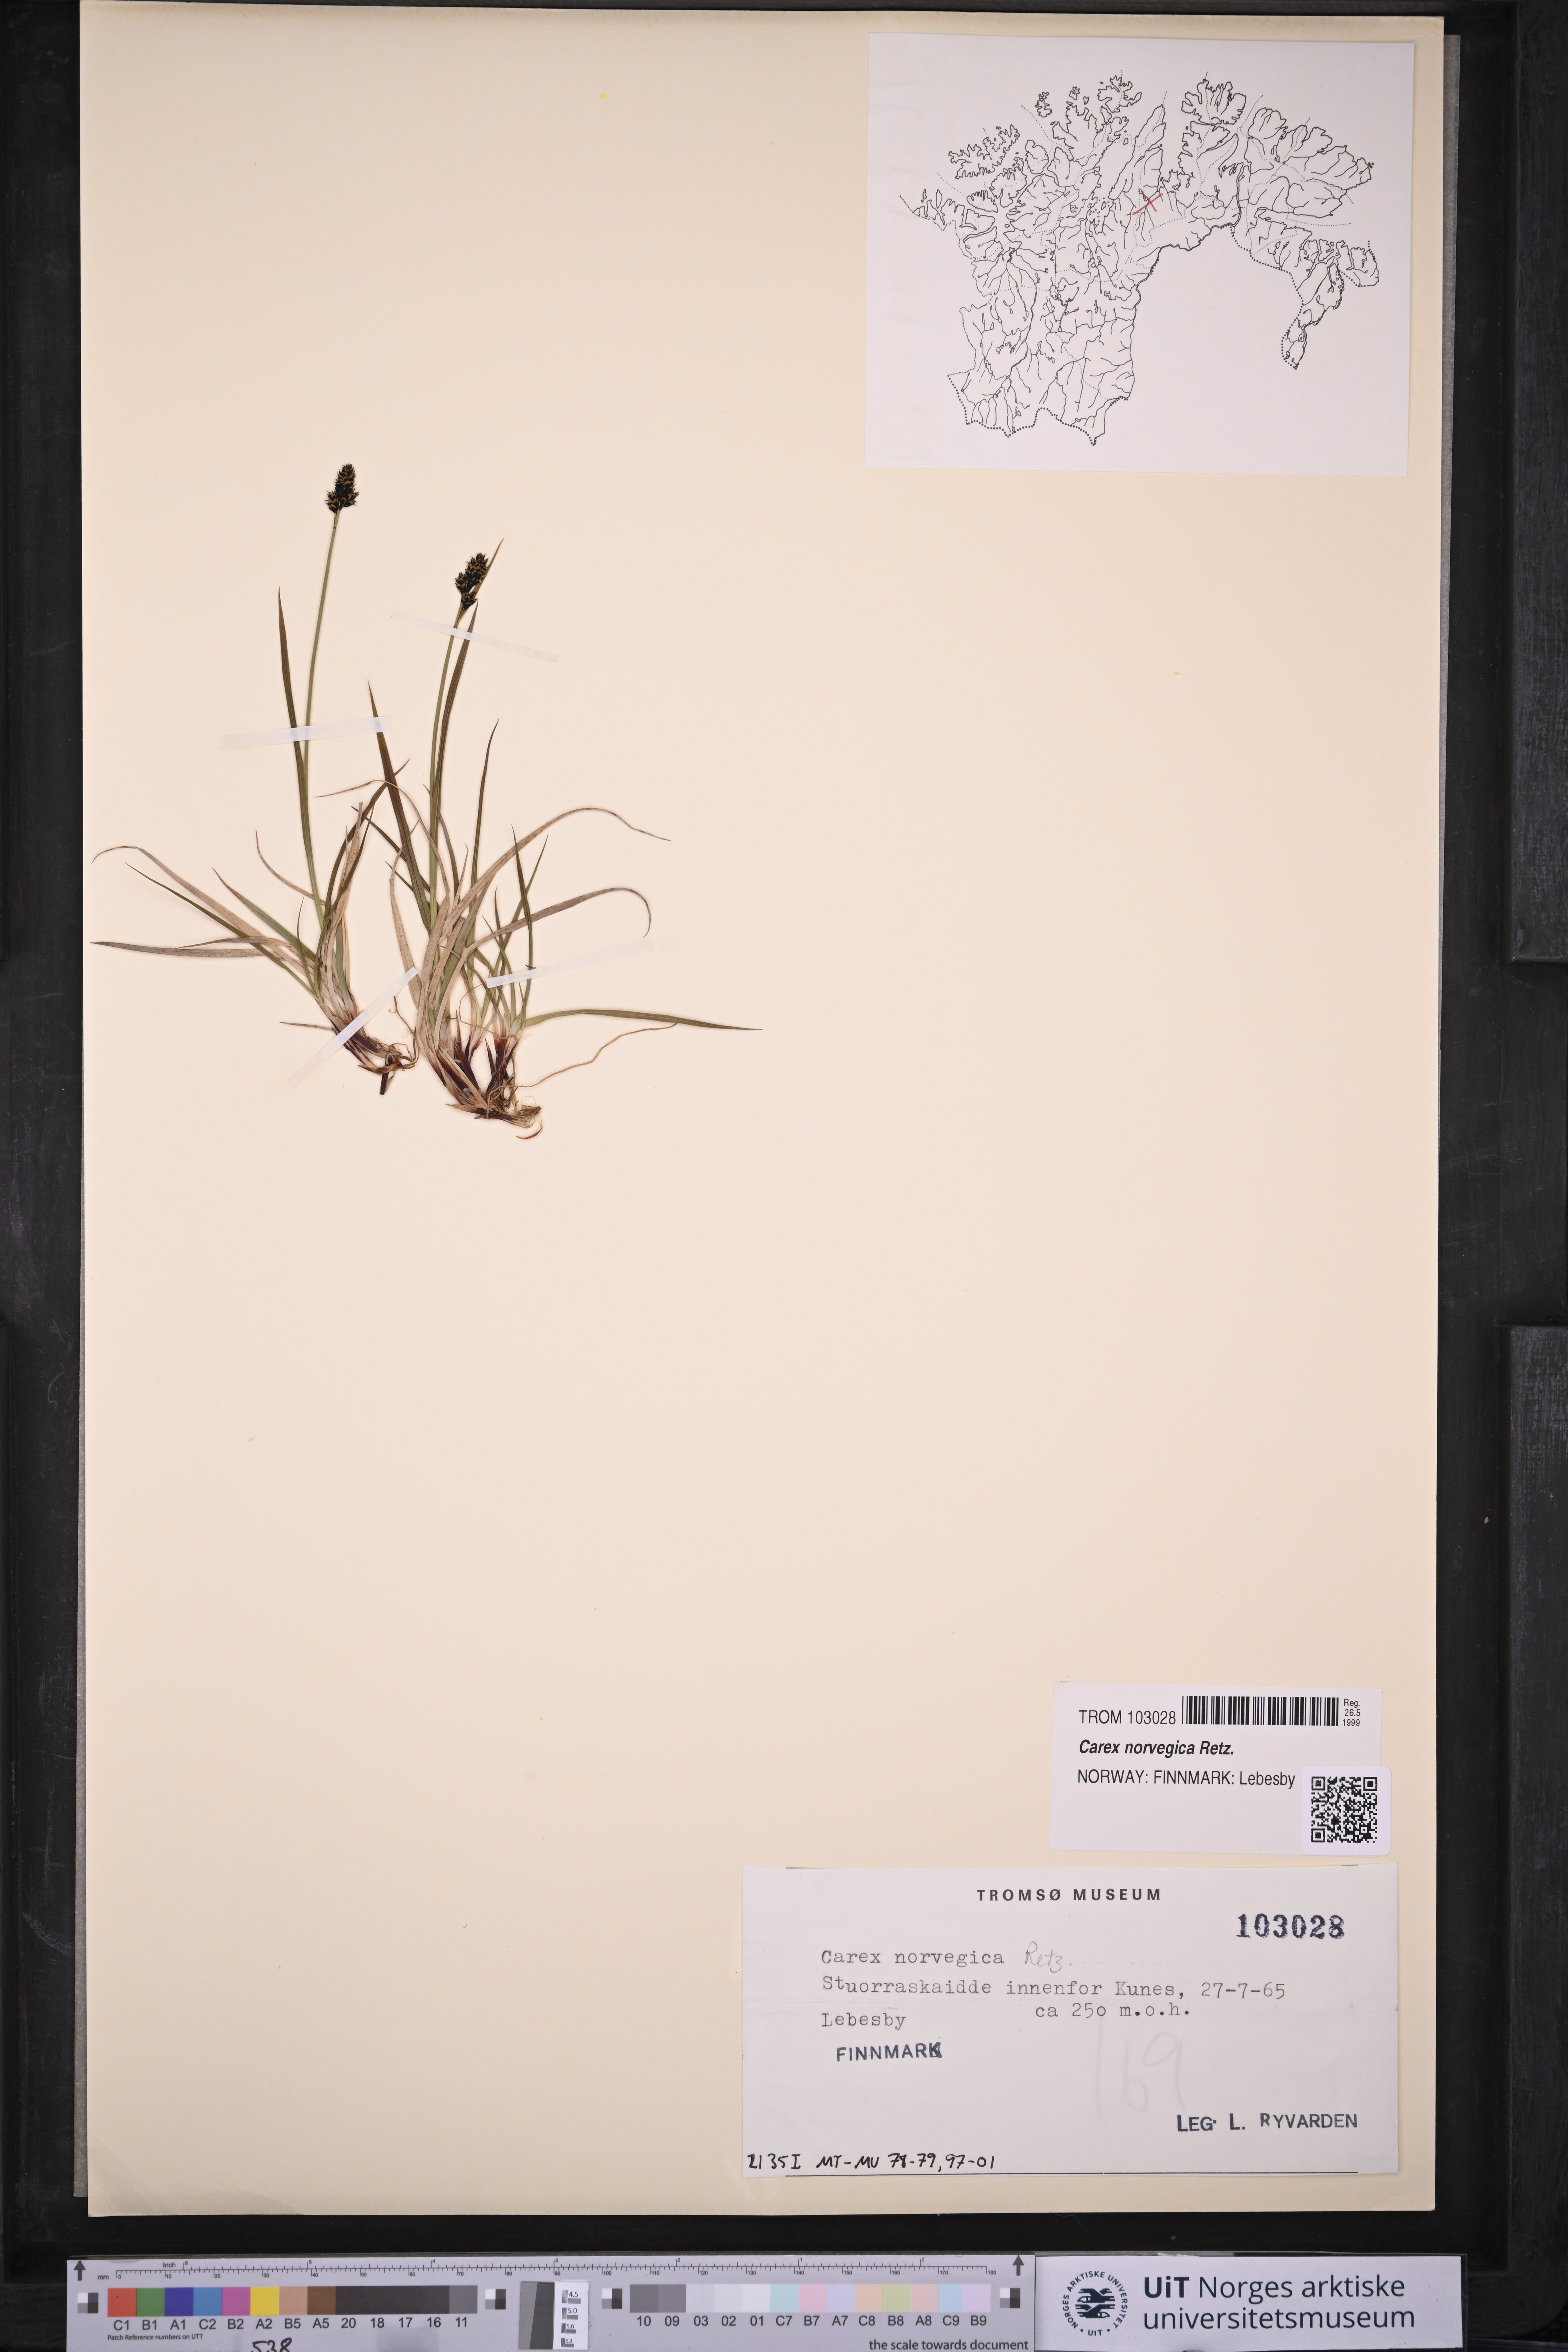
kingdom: Plantae
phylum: Tracheophyta
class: Liliopsida
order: Poales
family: Cyperaceae
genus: Carex
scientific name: Carex norvegica
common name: Close-headed alpine-sedge
